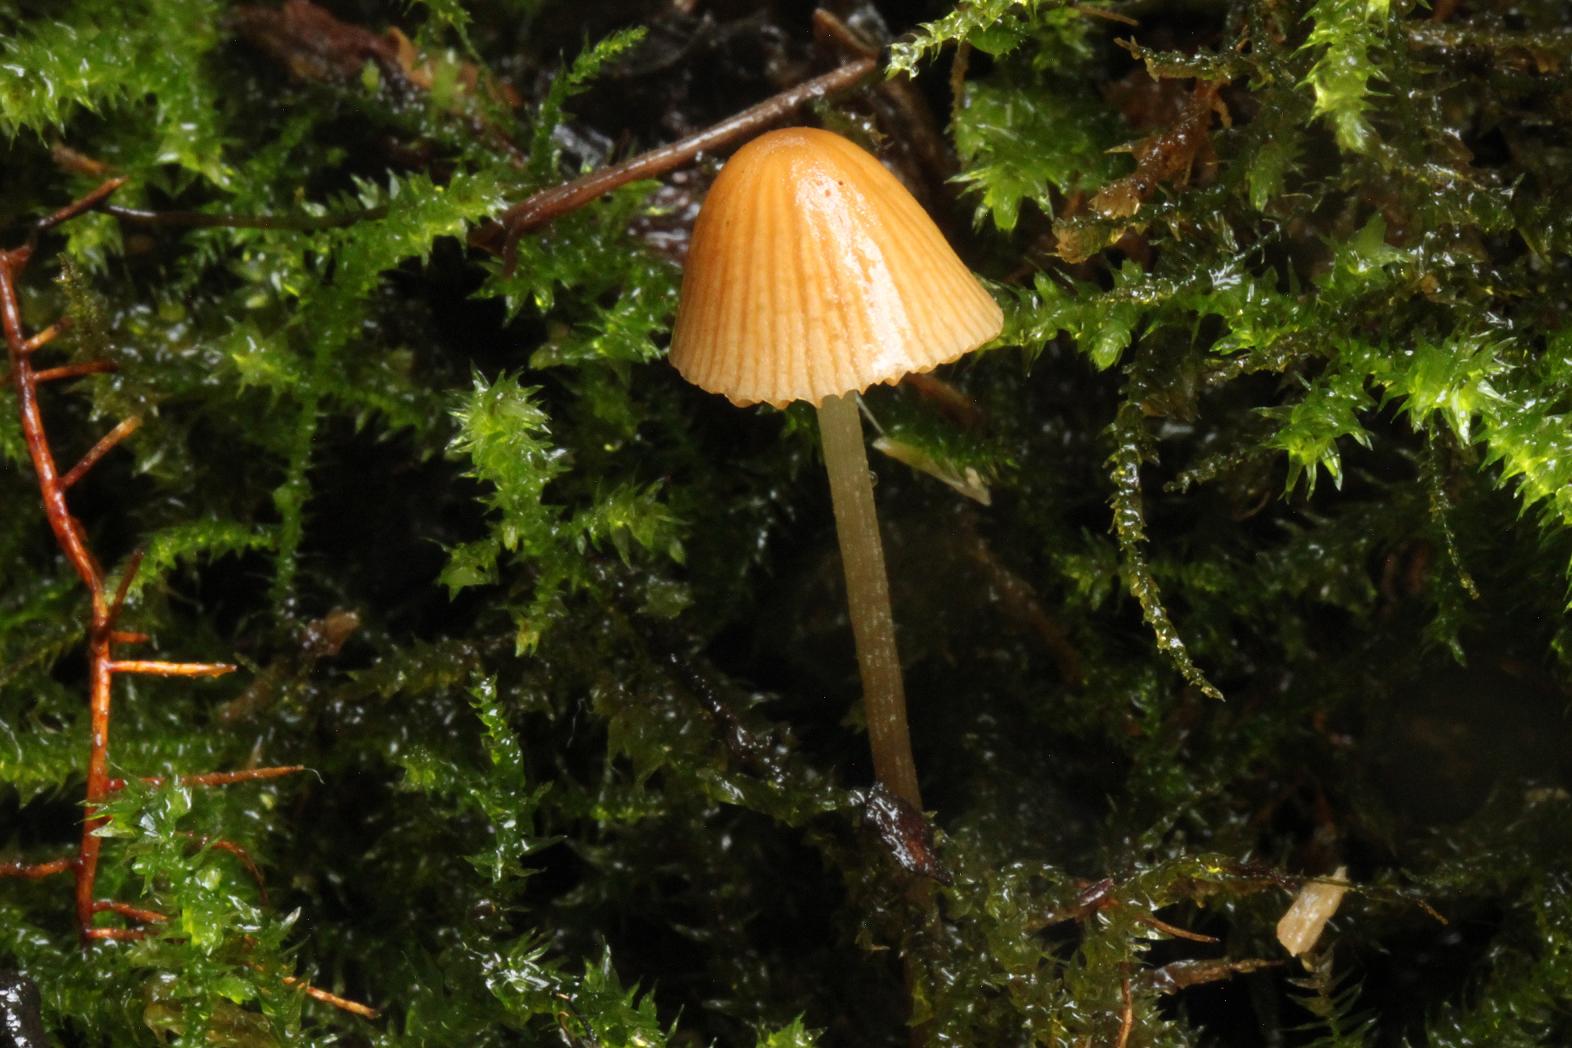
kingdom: Fungi
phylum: Basidiomycota
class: Agaricomycetes
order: Agaricales
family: Bolbitiaceae
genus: Conocybe
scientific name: Conocybe
